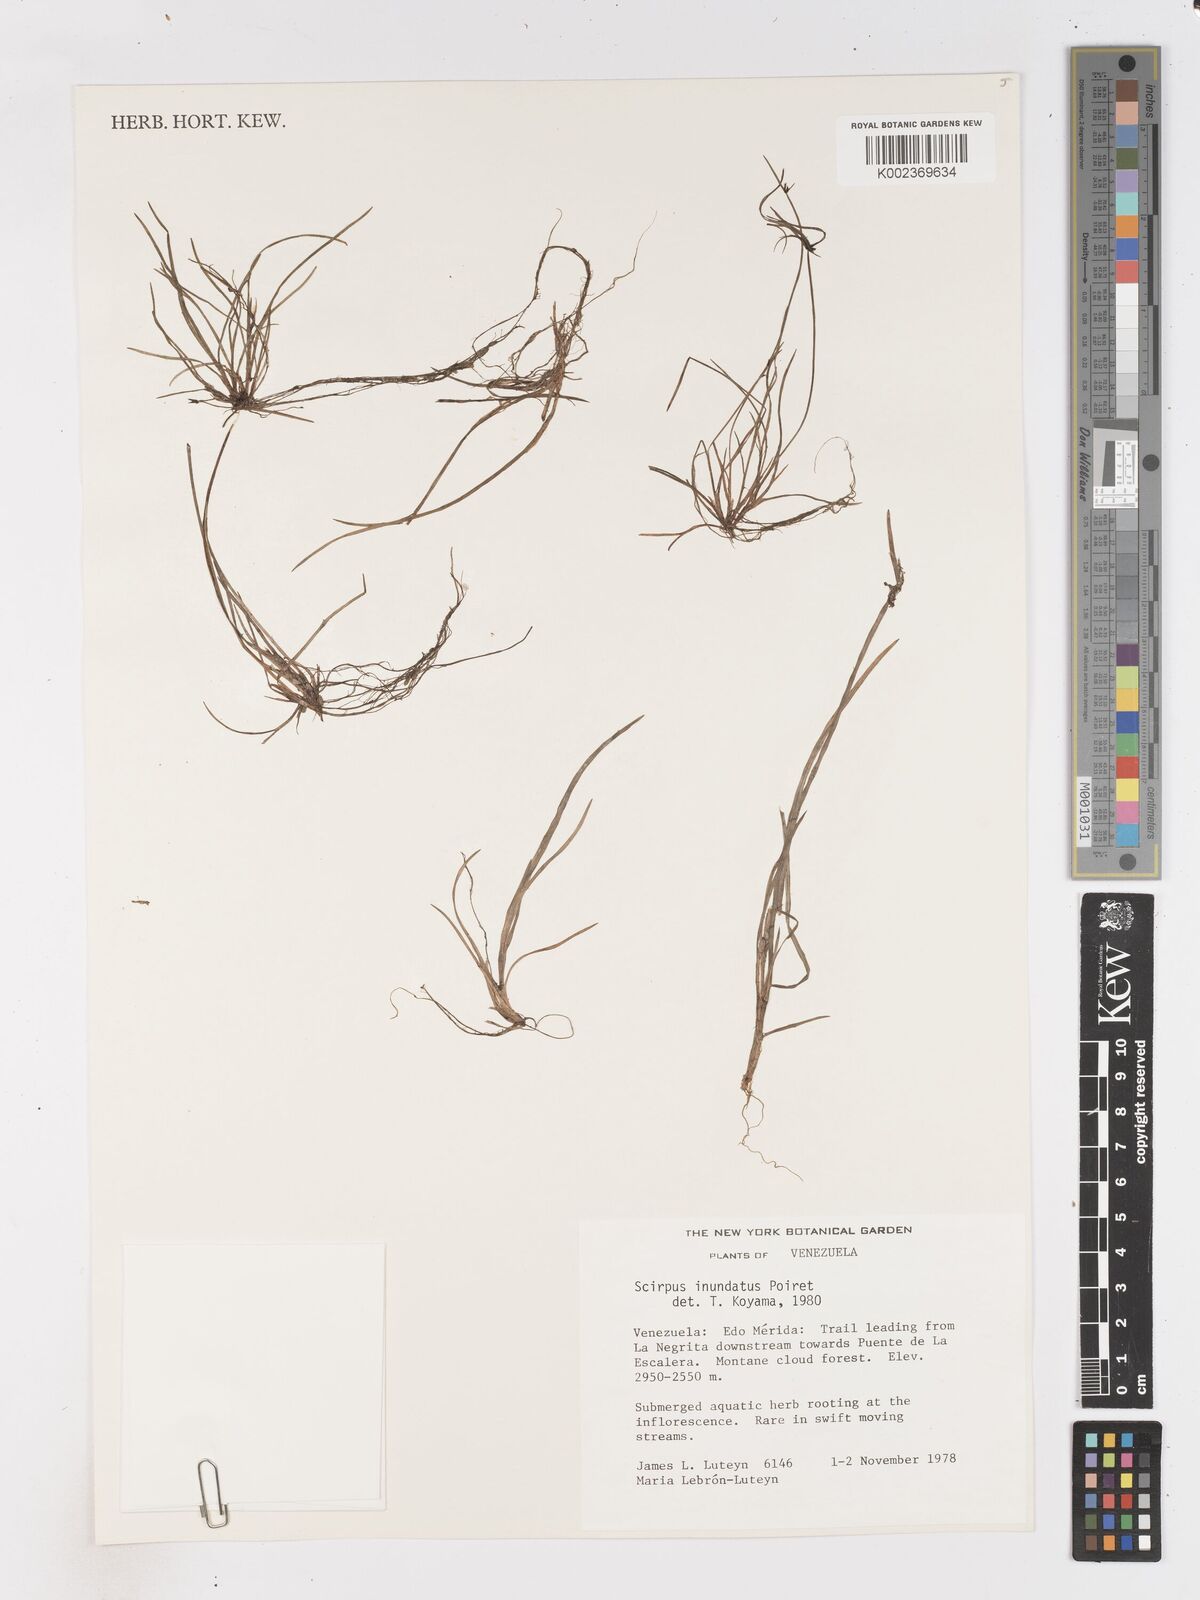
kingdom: Plantae
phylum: Tracheophyta
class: Liliopsida
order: Poales
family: Cyperaceae
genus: Isolepis
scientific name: Isolepis inundata
